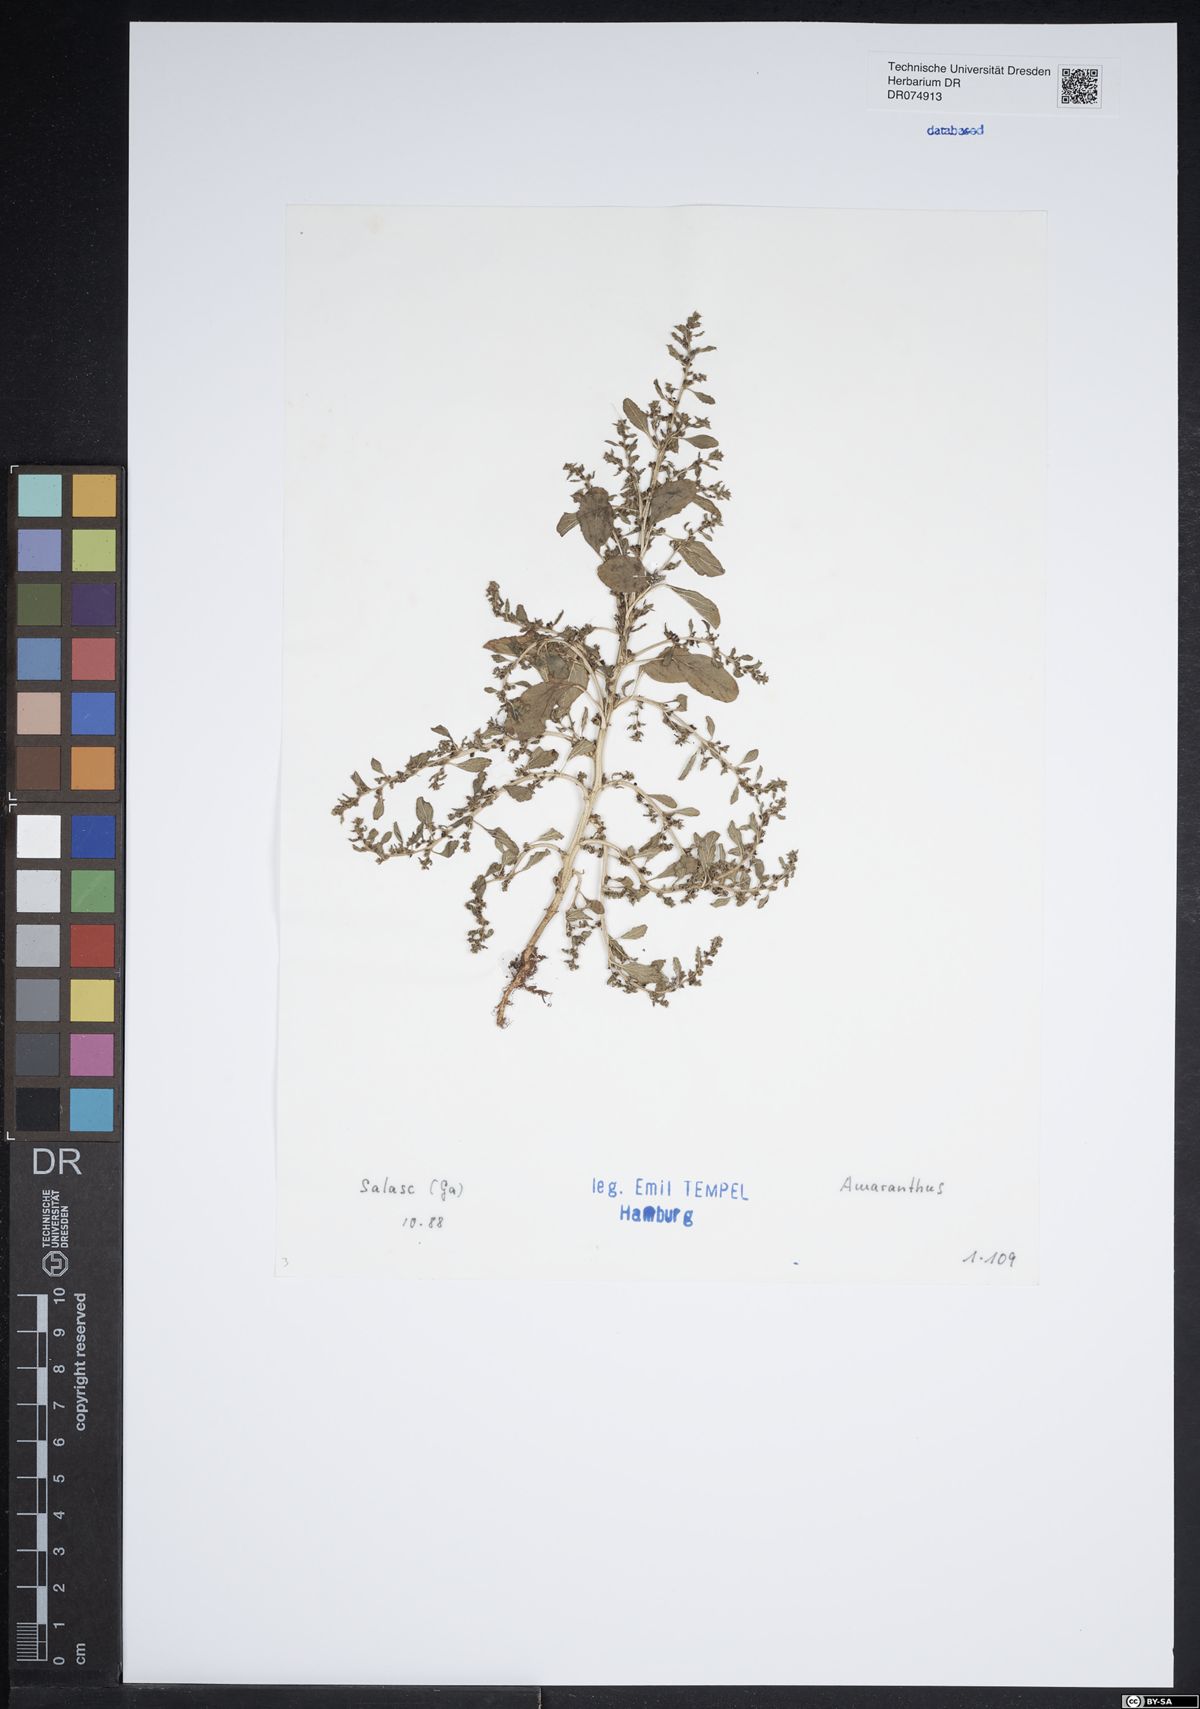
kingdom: Plantae
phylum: Tracheophyta
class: Magnoliopsida
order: Caryophyllales
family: Amaranthaceae
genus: Amaranthus
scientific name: Amaranthus
